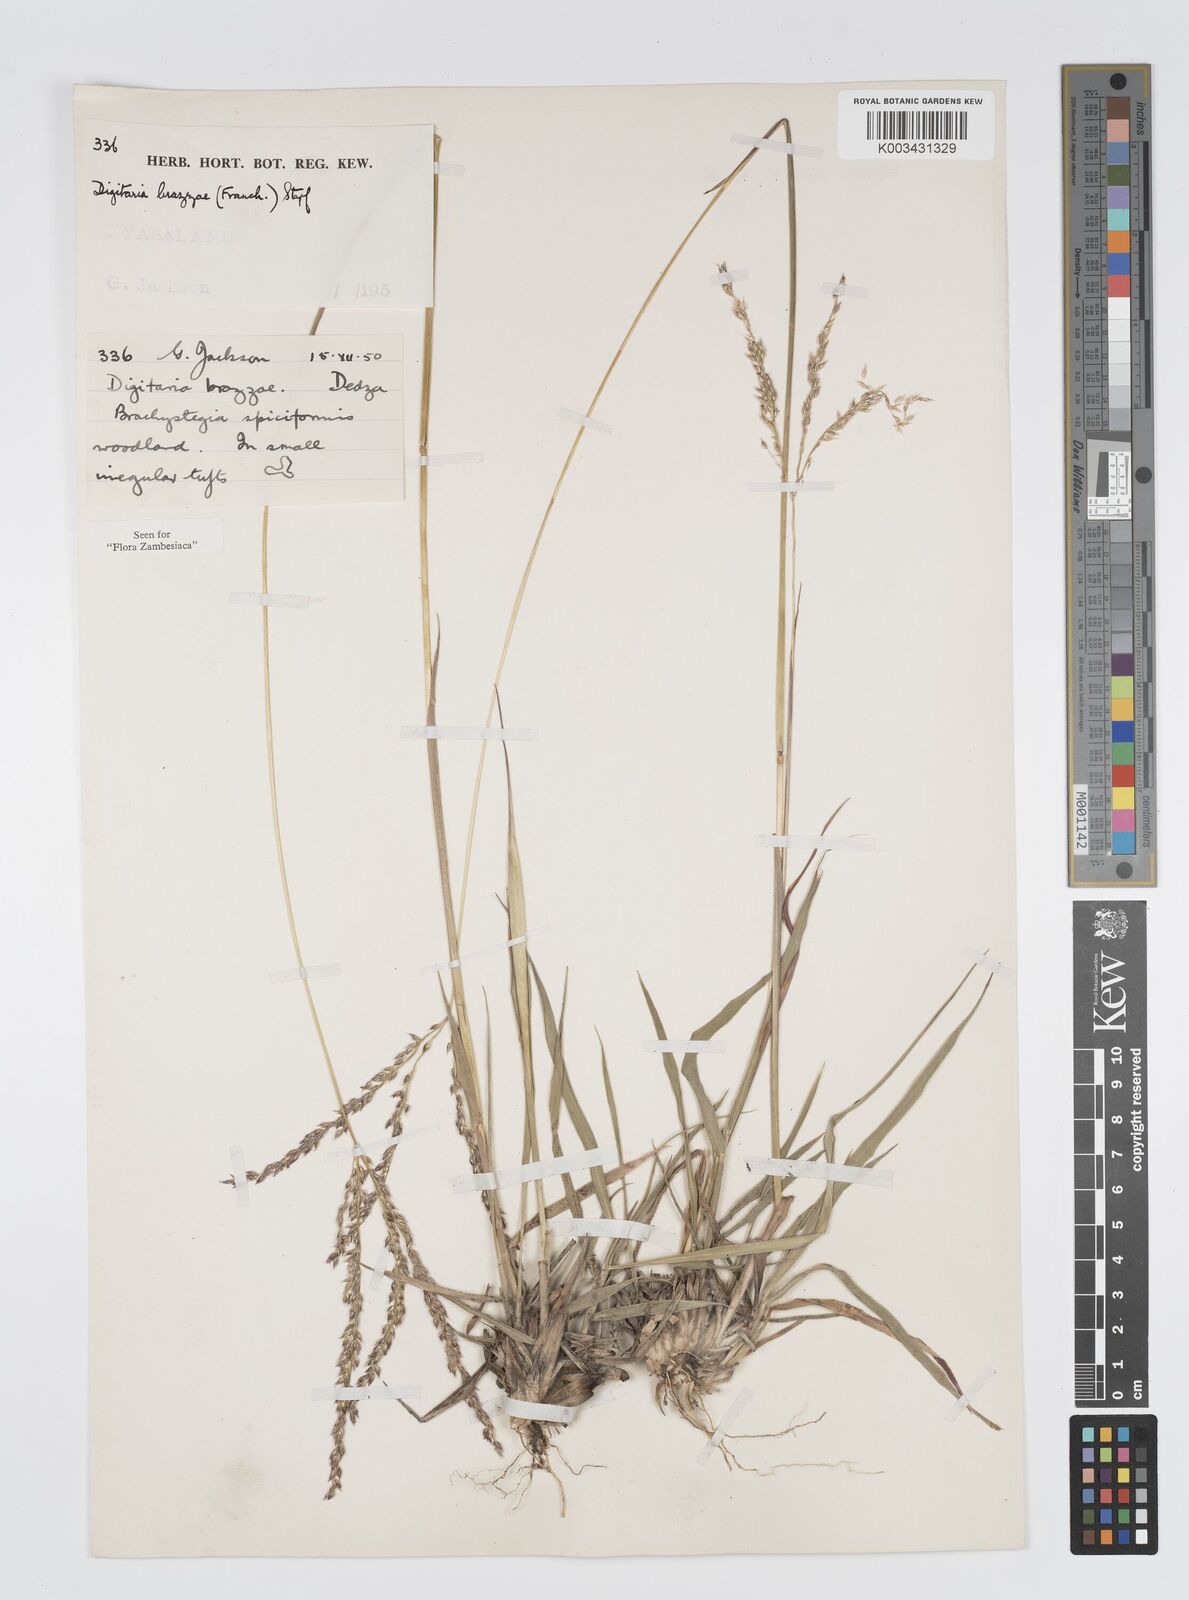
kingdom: Plantae
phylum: Tracheophyta
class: Liliopsida
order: Poales
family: Poaceae
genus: Digitaria
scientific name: Digitaria brazzae
